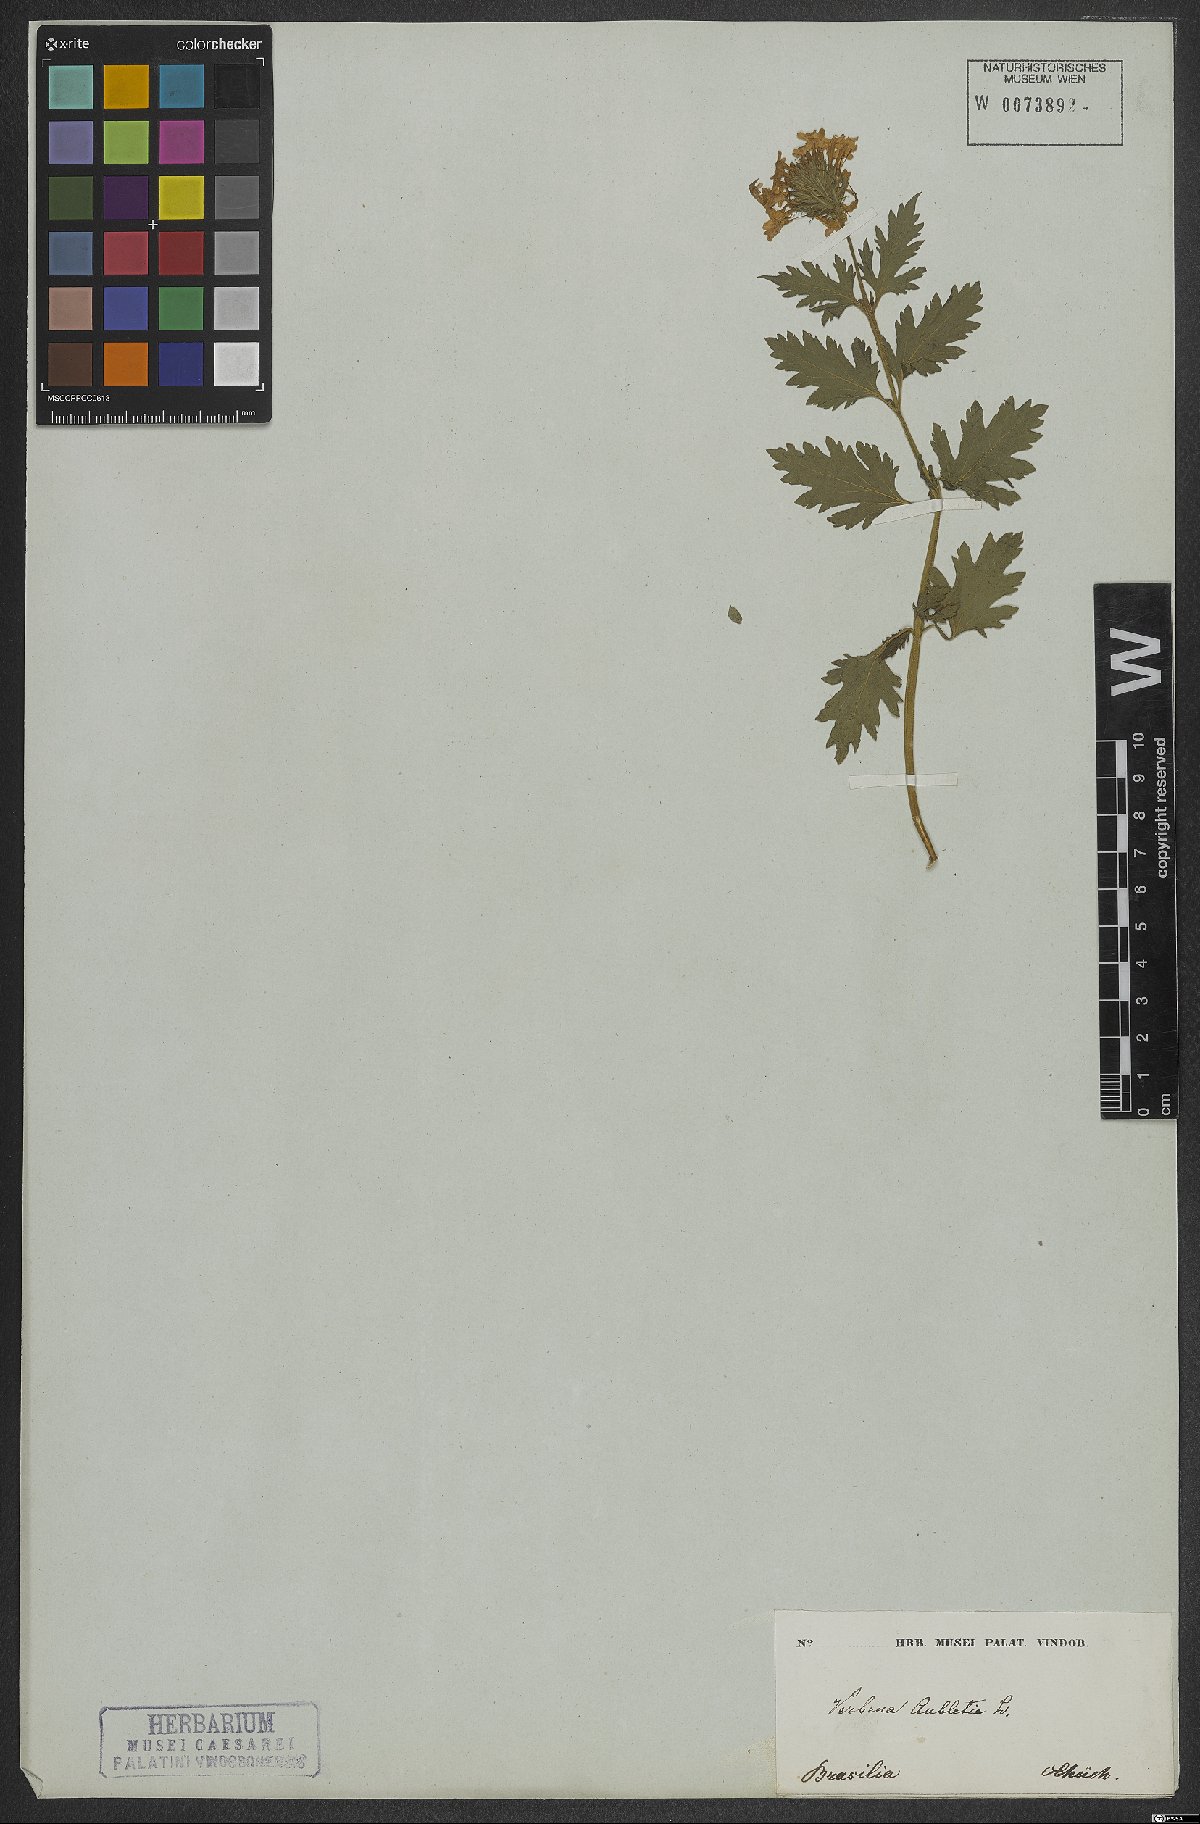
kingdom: Plantae
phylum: Tracheophyta
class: Magnoliopsida
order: Lamiales
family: Verbenaceae
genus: Verbena
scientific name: Verbena canadensis
